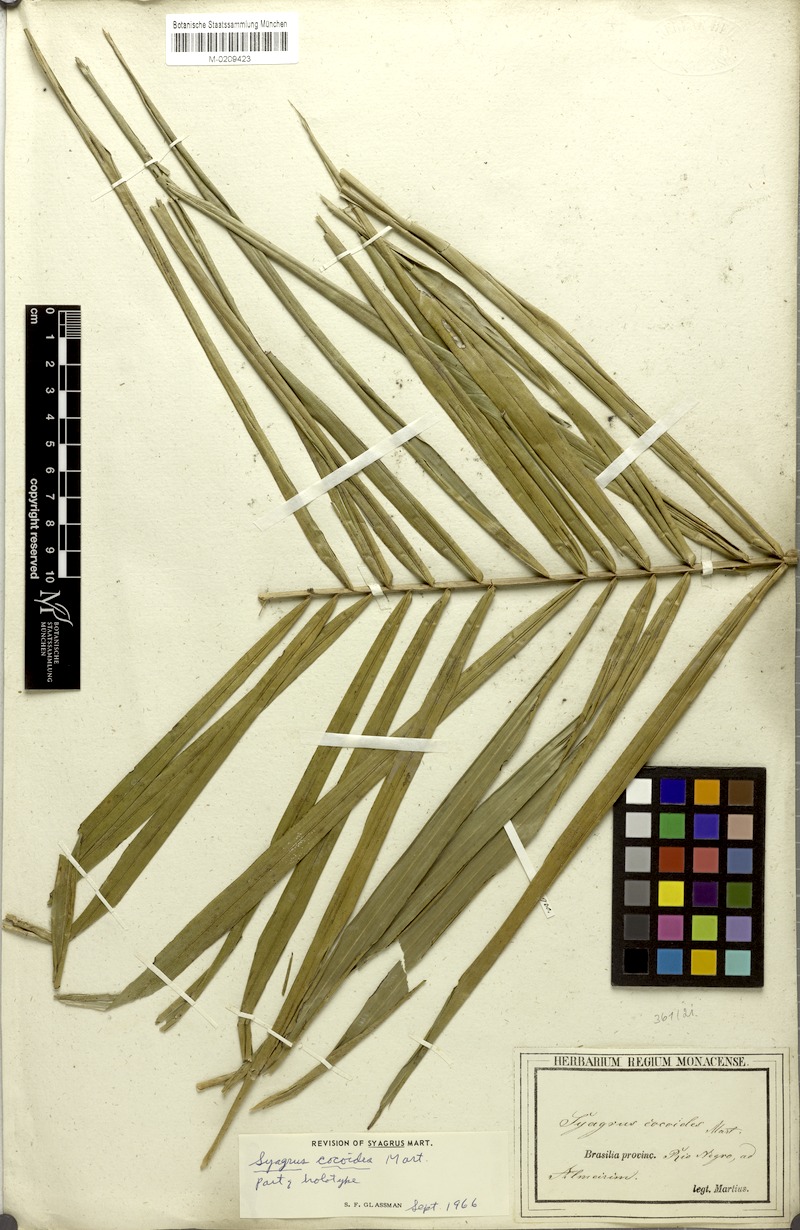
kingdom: Plantae
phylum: Tracheophyta
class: Liliopsida
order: Arecales
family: Arecaceae
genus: Syagrus
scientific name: Syagrus cocoides
